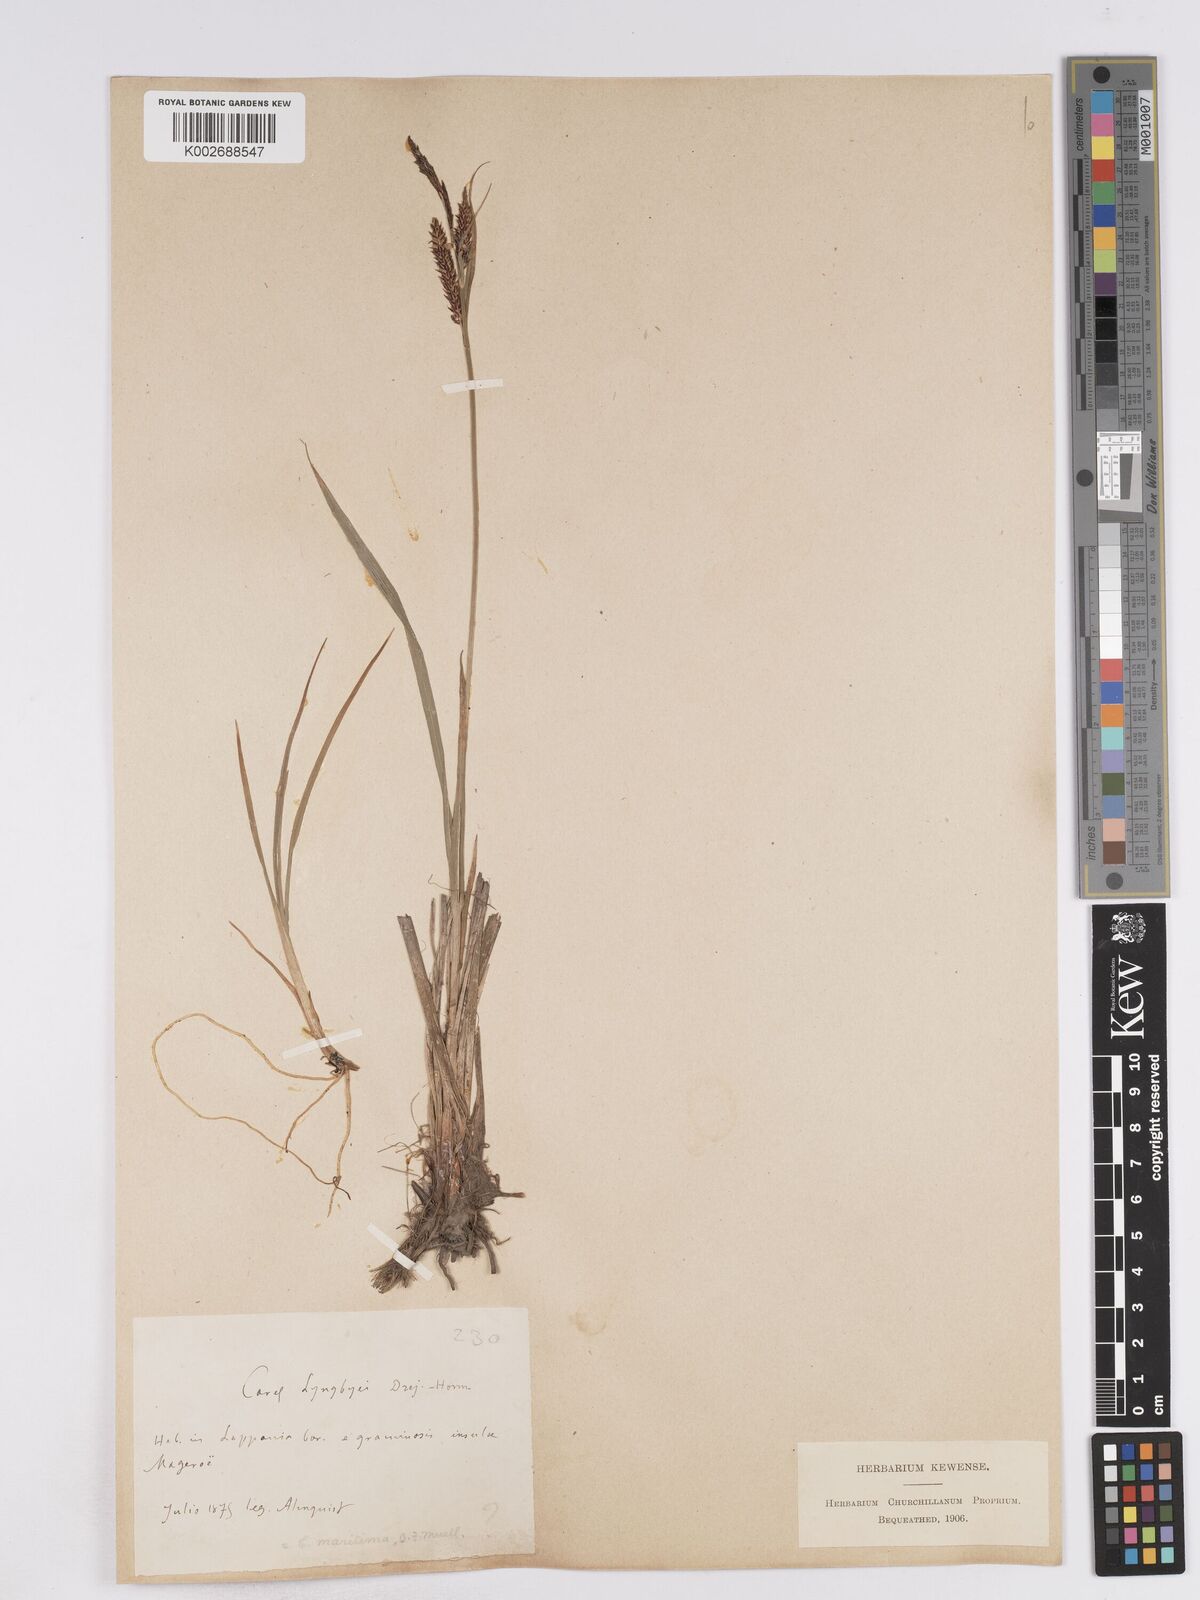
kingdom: Plantae
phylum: Tracheophyta
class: Liliopsida
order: Poales
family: Cyperaceae
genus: Carex
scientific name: Carex recta
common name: Estuarine sedge
